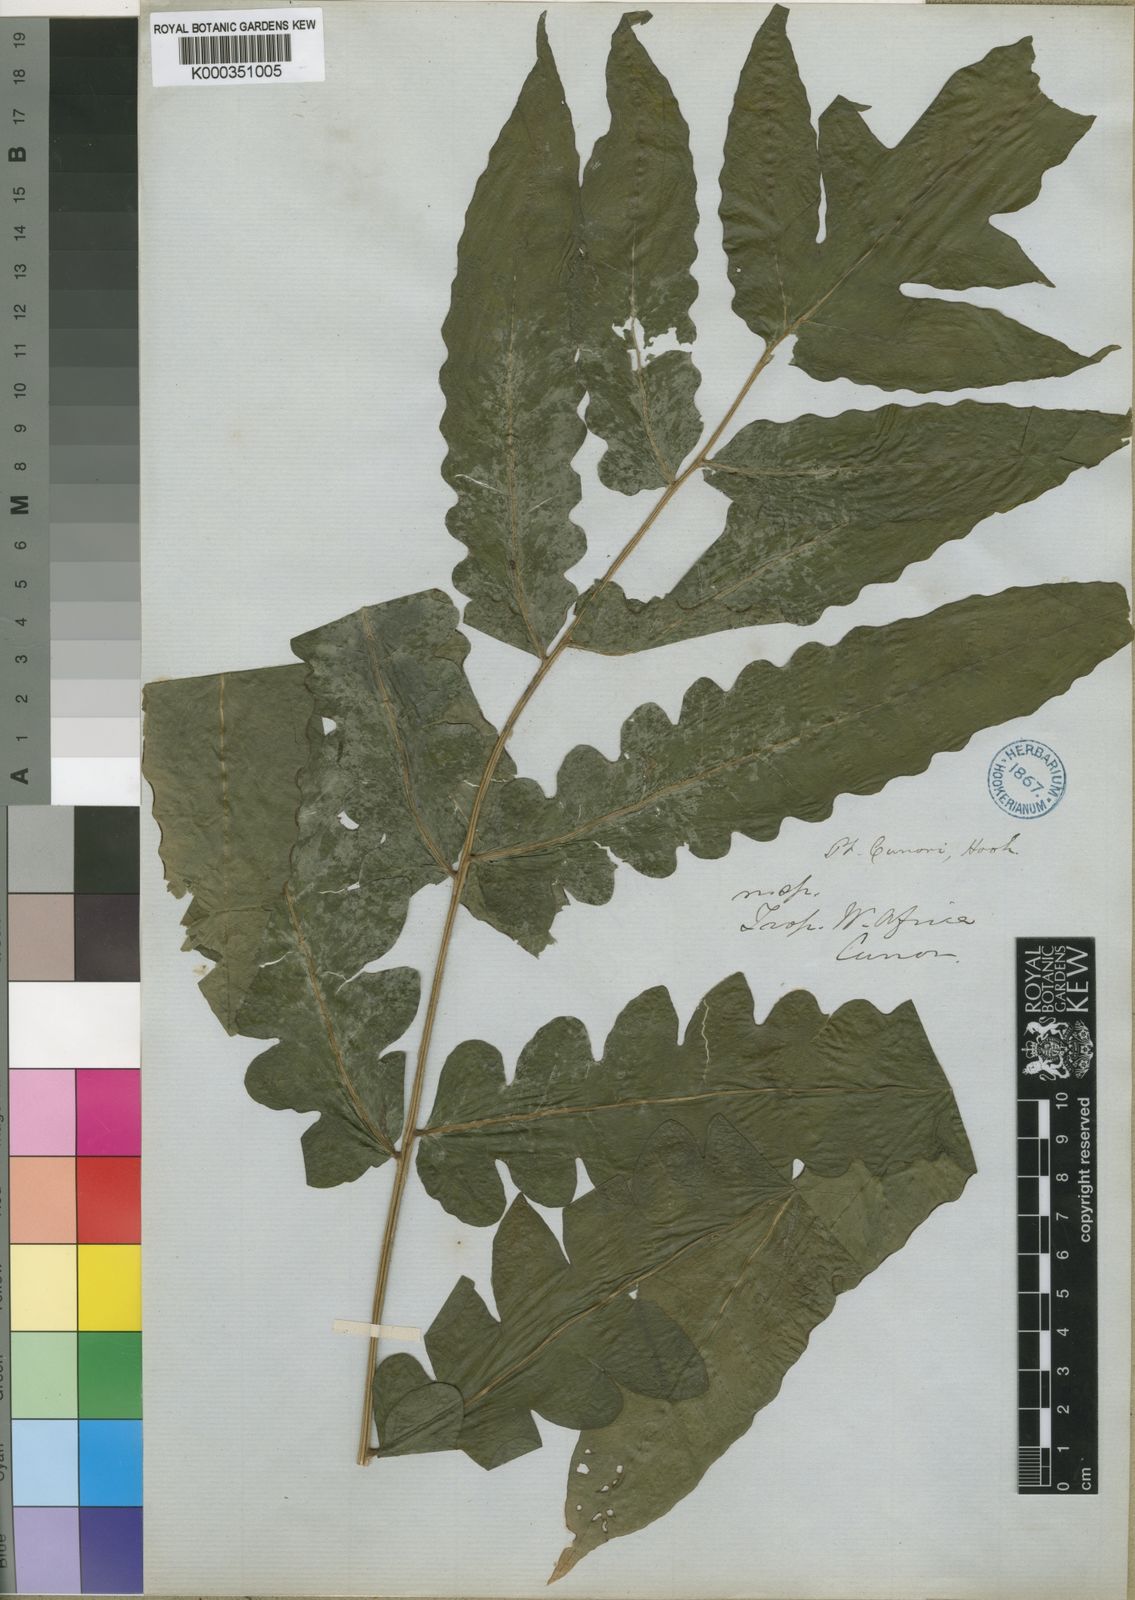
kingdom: Plantae
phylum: Tracheophyta
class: Polypodiopsida
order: Polypodiales
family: Dennstaedtiaceae
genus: Blotiella
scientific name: Blotiella currorii
